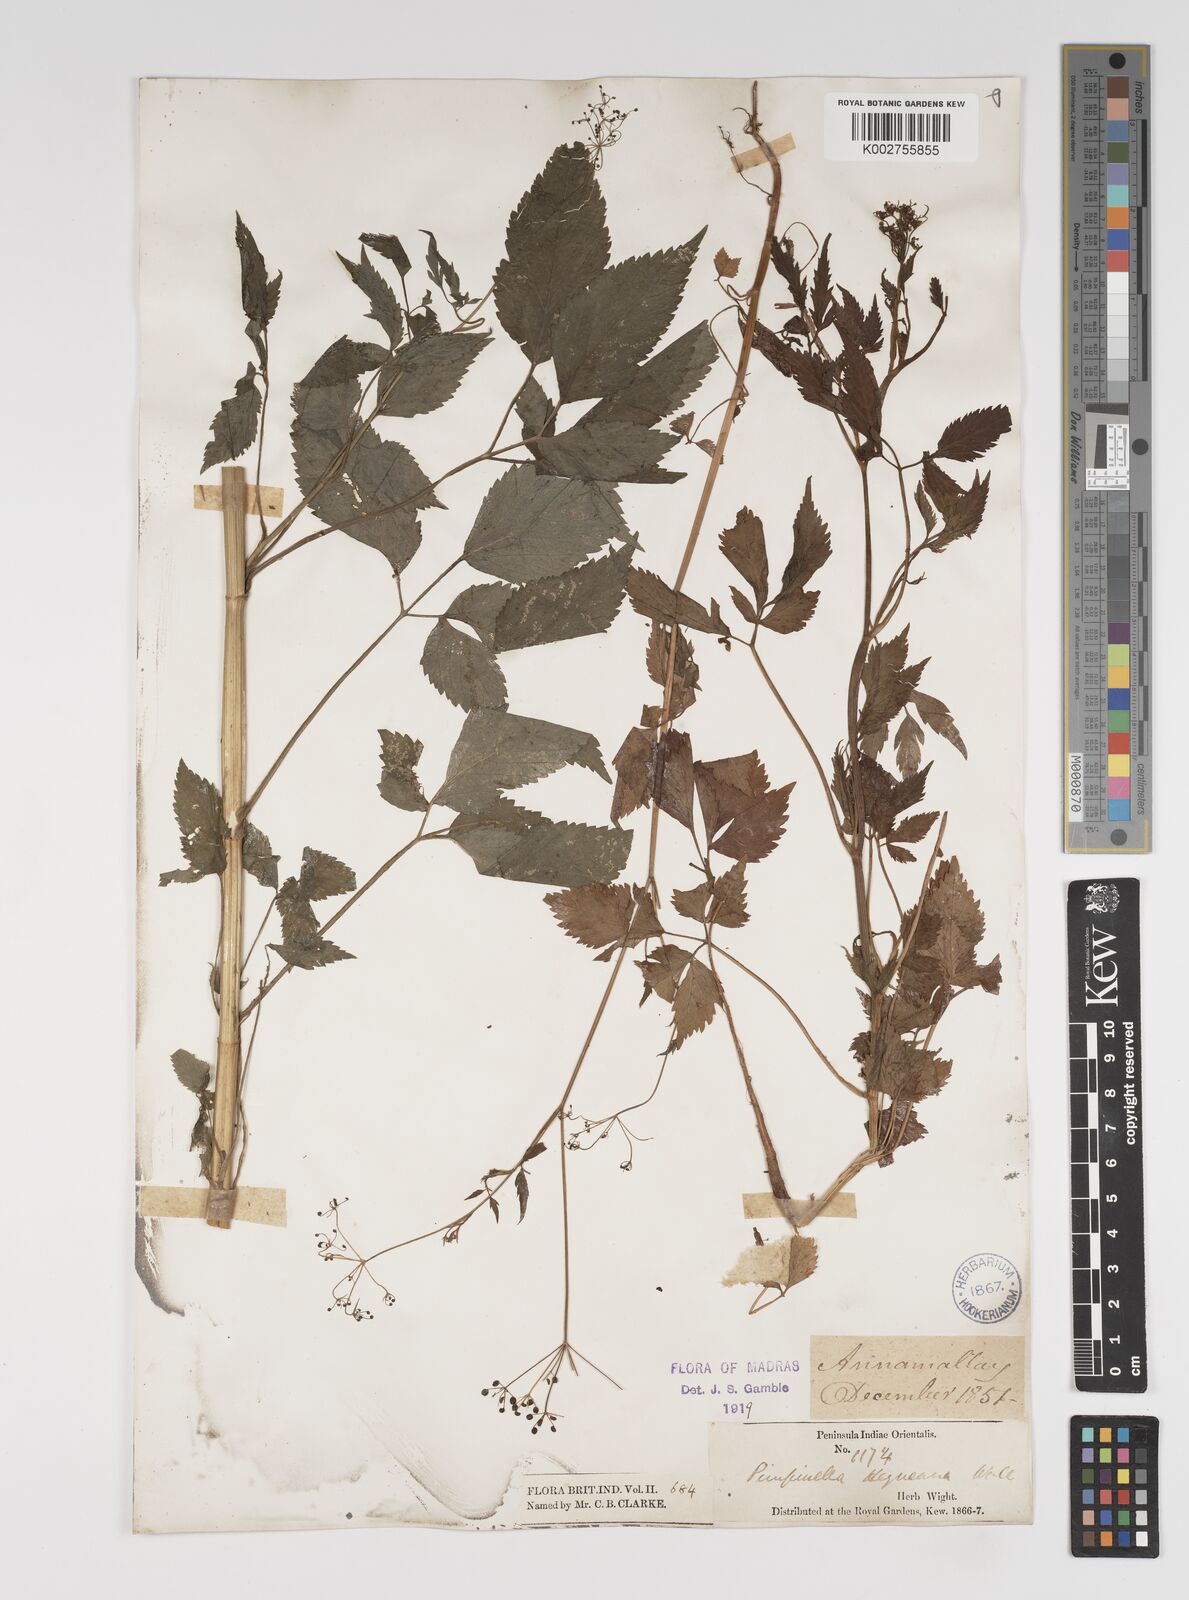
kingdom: Plantae
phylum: Tracheophyta
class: Magnoliopsida
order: Apiales
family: Apiaceae
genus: Pimpinella
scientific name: Pimpinella heyneana
